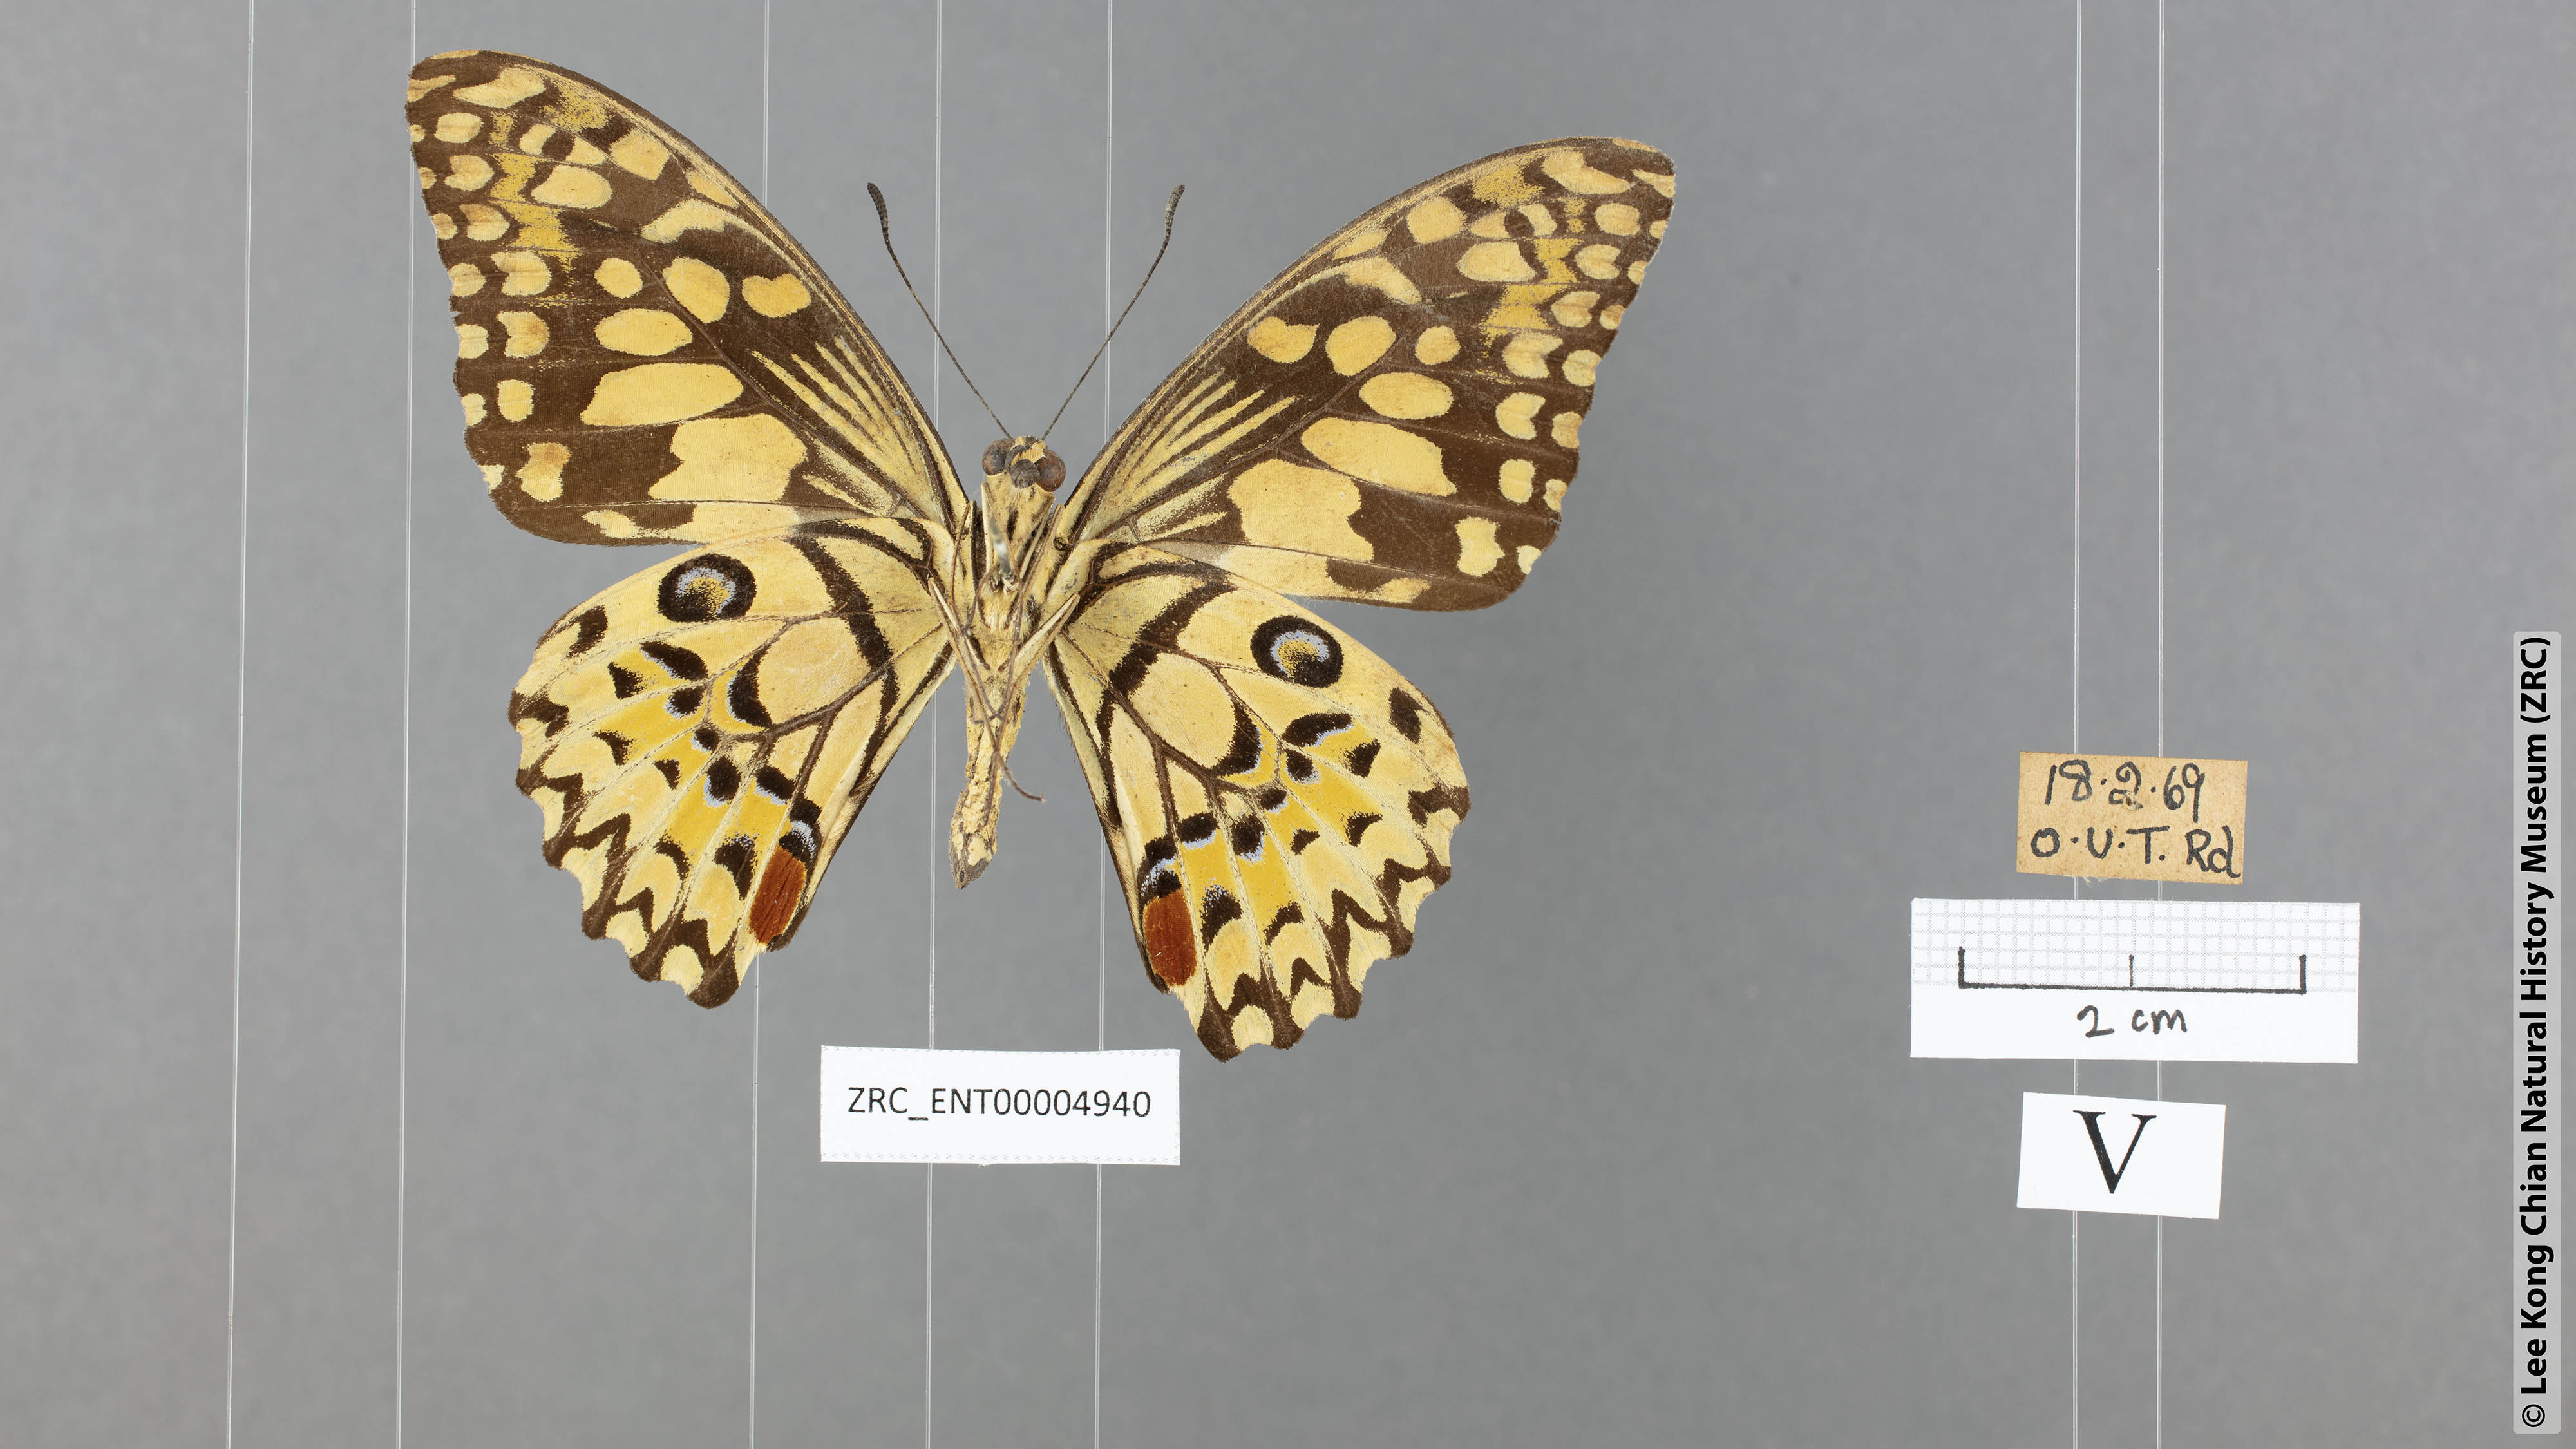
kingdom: Animalia
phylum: Arthropoda
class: Insecta
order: Lepidoptera
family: Papilionidae
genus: Papilio
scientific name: Papilio demoleus
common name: Lime butterfly
